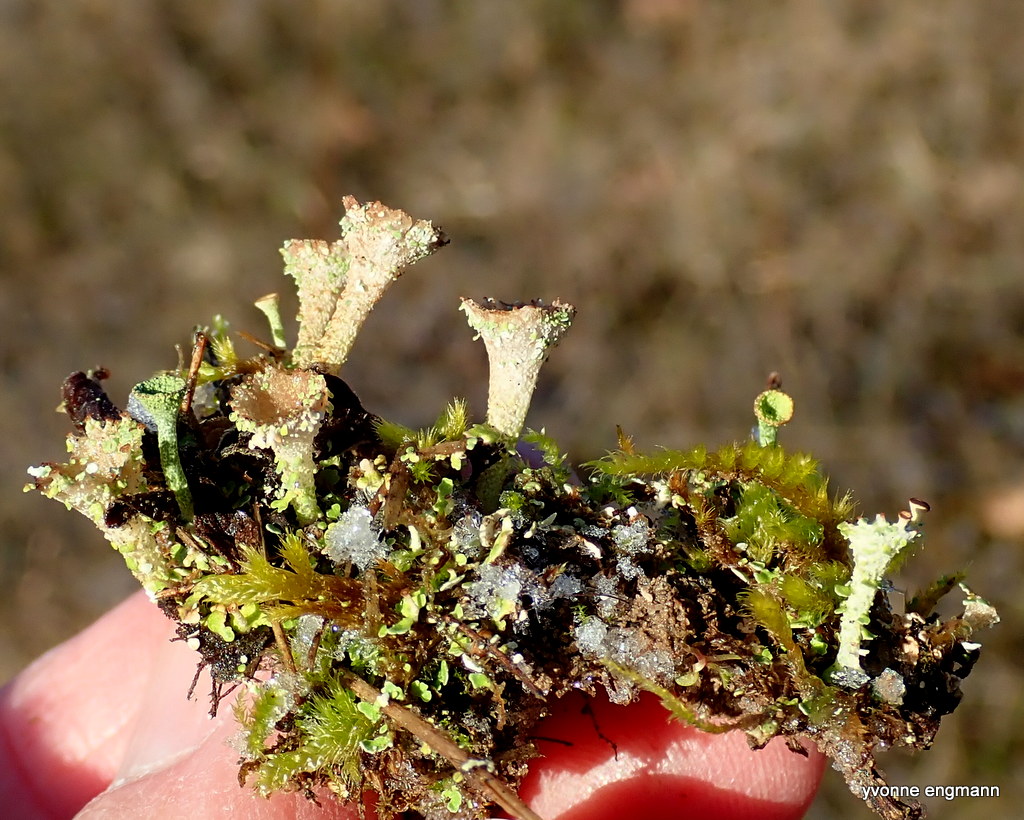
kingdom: Fungi
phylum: Ascomycota
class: Lecanoromycetes
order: Lecanorales
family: Cladoniaceae
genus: Cladonia
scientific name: Cladonia
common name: brungrøn bægerlav
